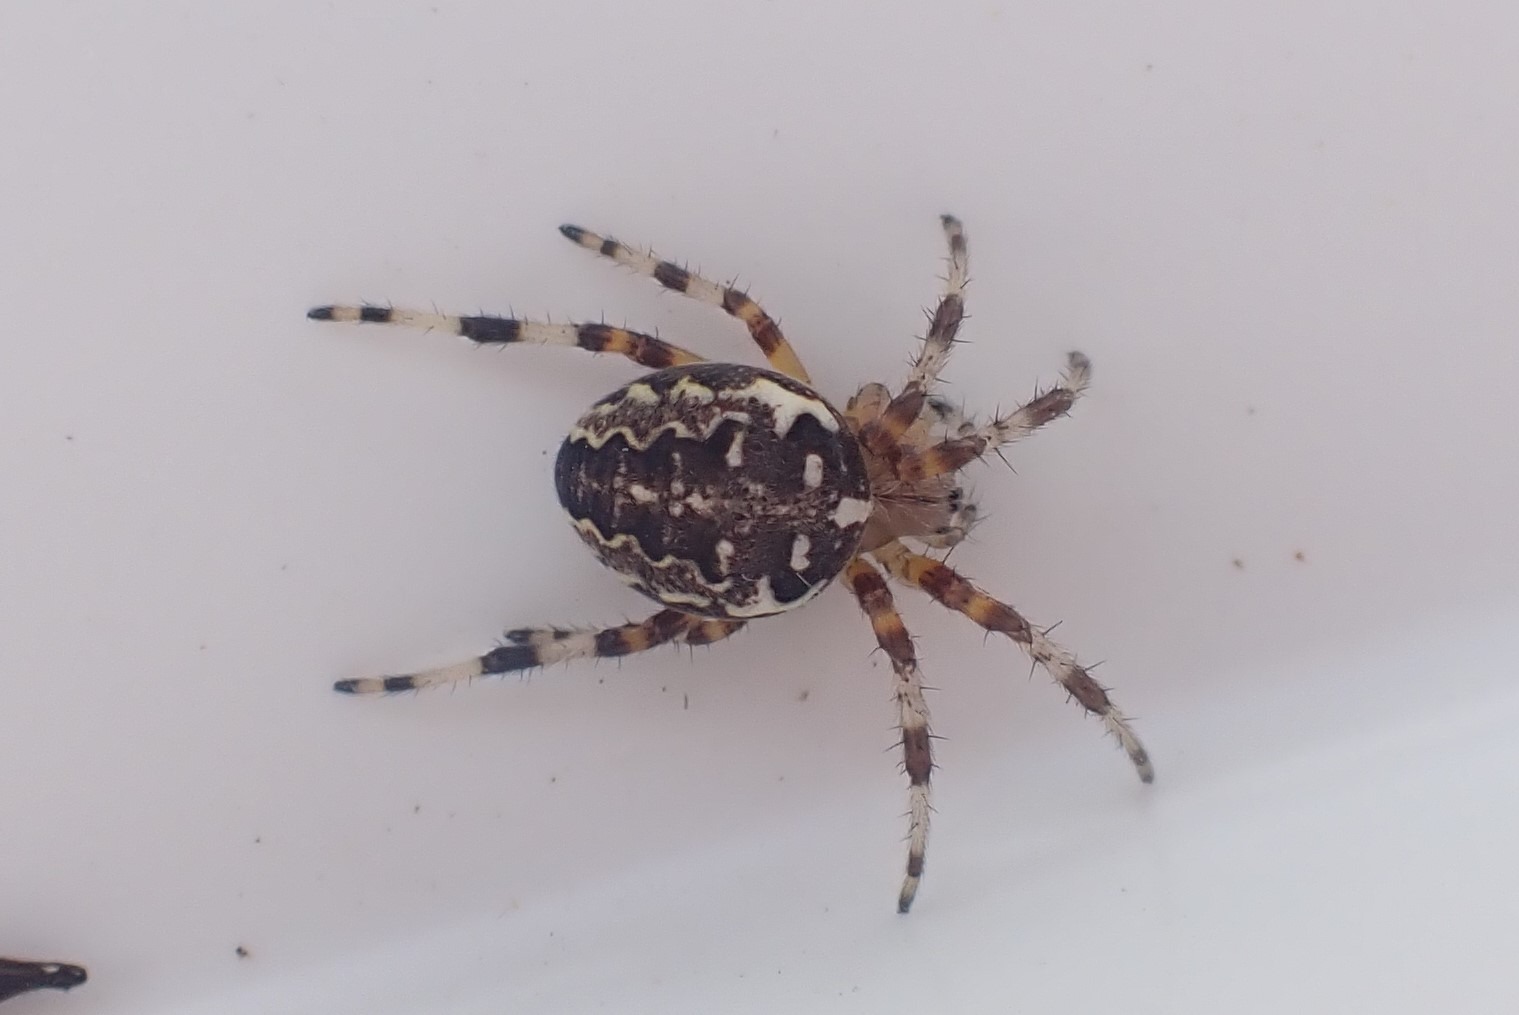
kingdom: Animalia
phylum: Arthropoda
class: Arachnida
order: Araneae
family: Araneidae
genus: Araneus
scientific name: Araneus marmoreus
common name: Marmoreret hjulspinder
